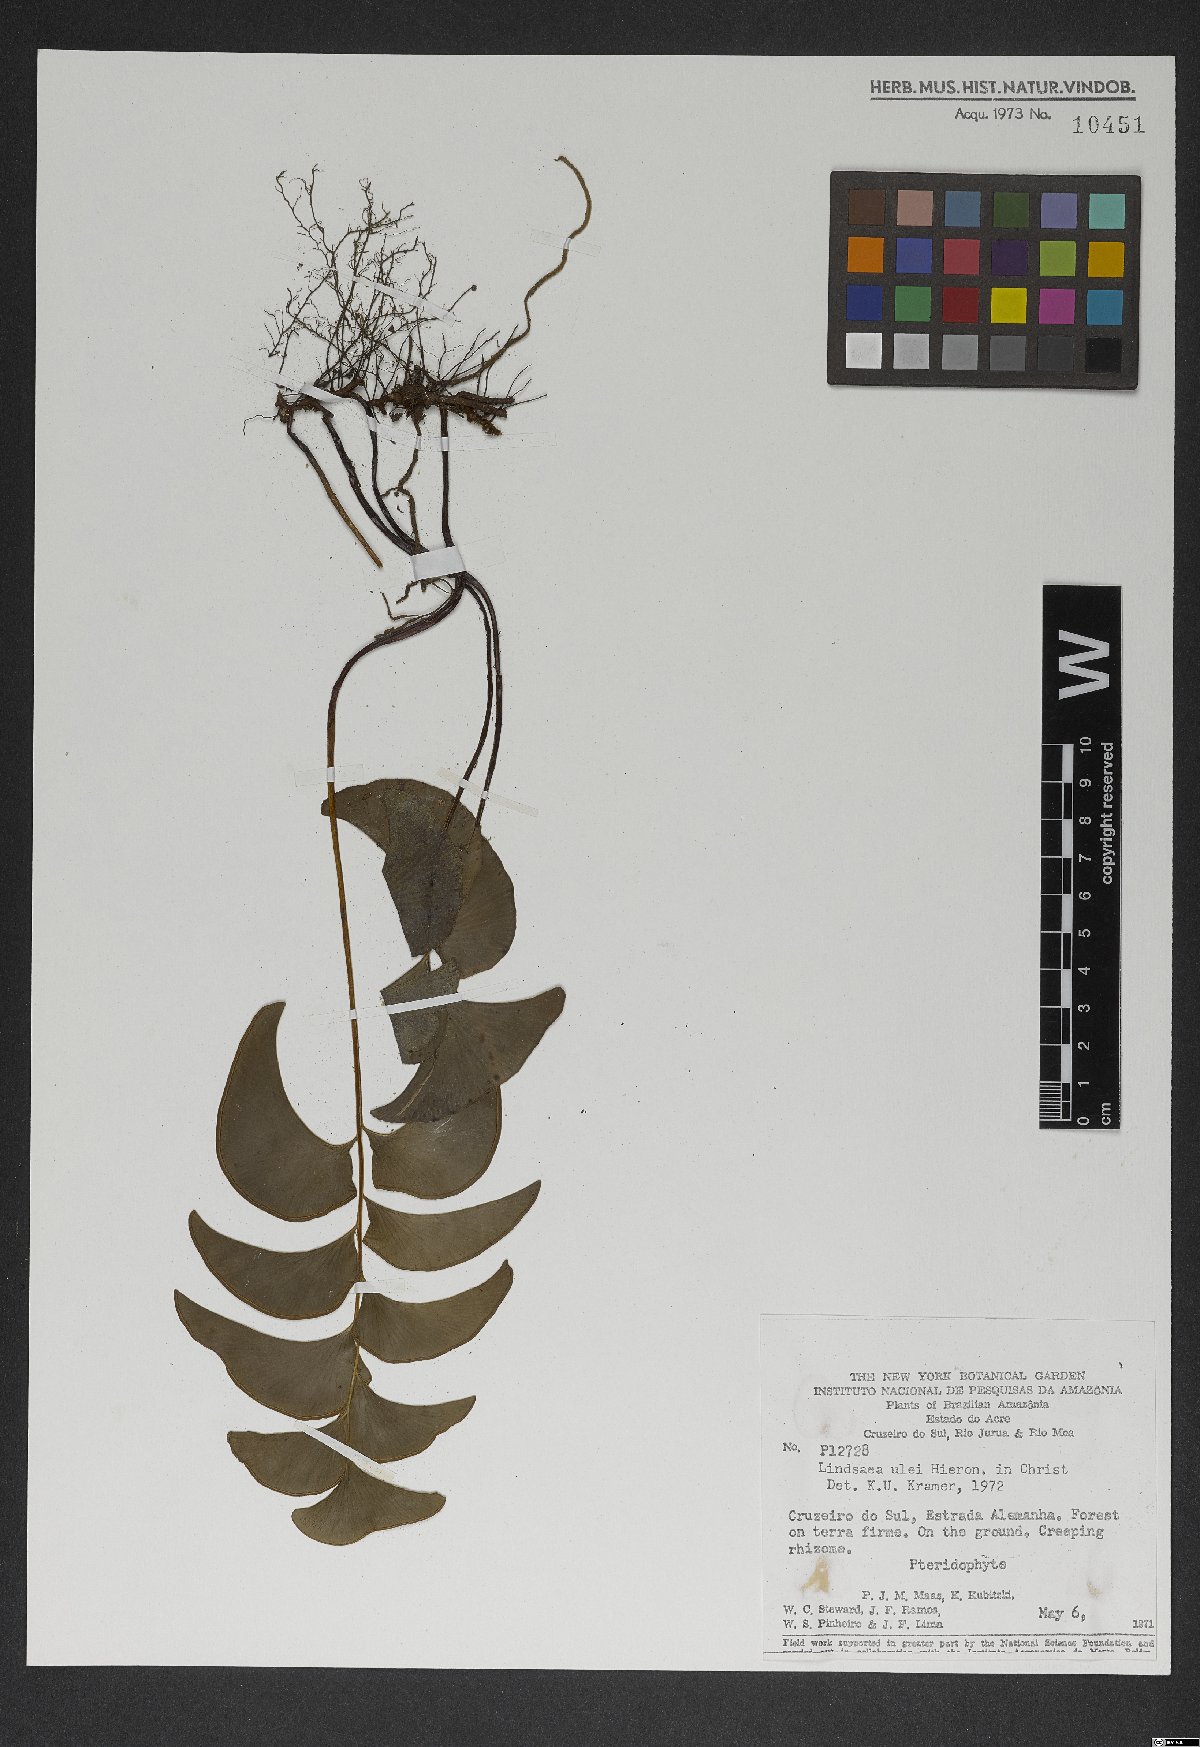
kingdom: Plantae
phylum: Tracheophyta
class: Polypodiopsida
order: Polypodiales
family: Lindsaeaceae
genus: Lindsaea
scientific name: Lindsaea ulei
